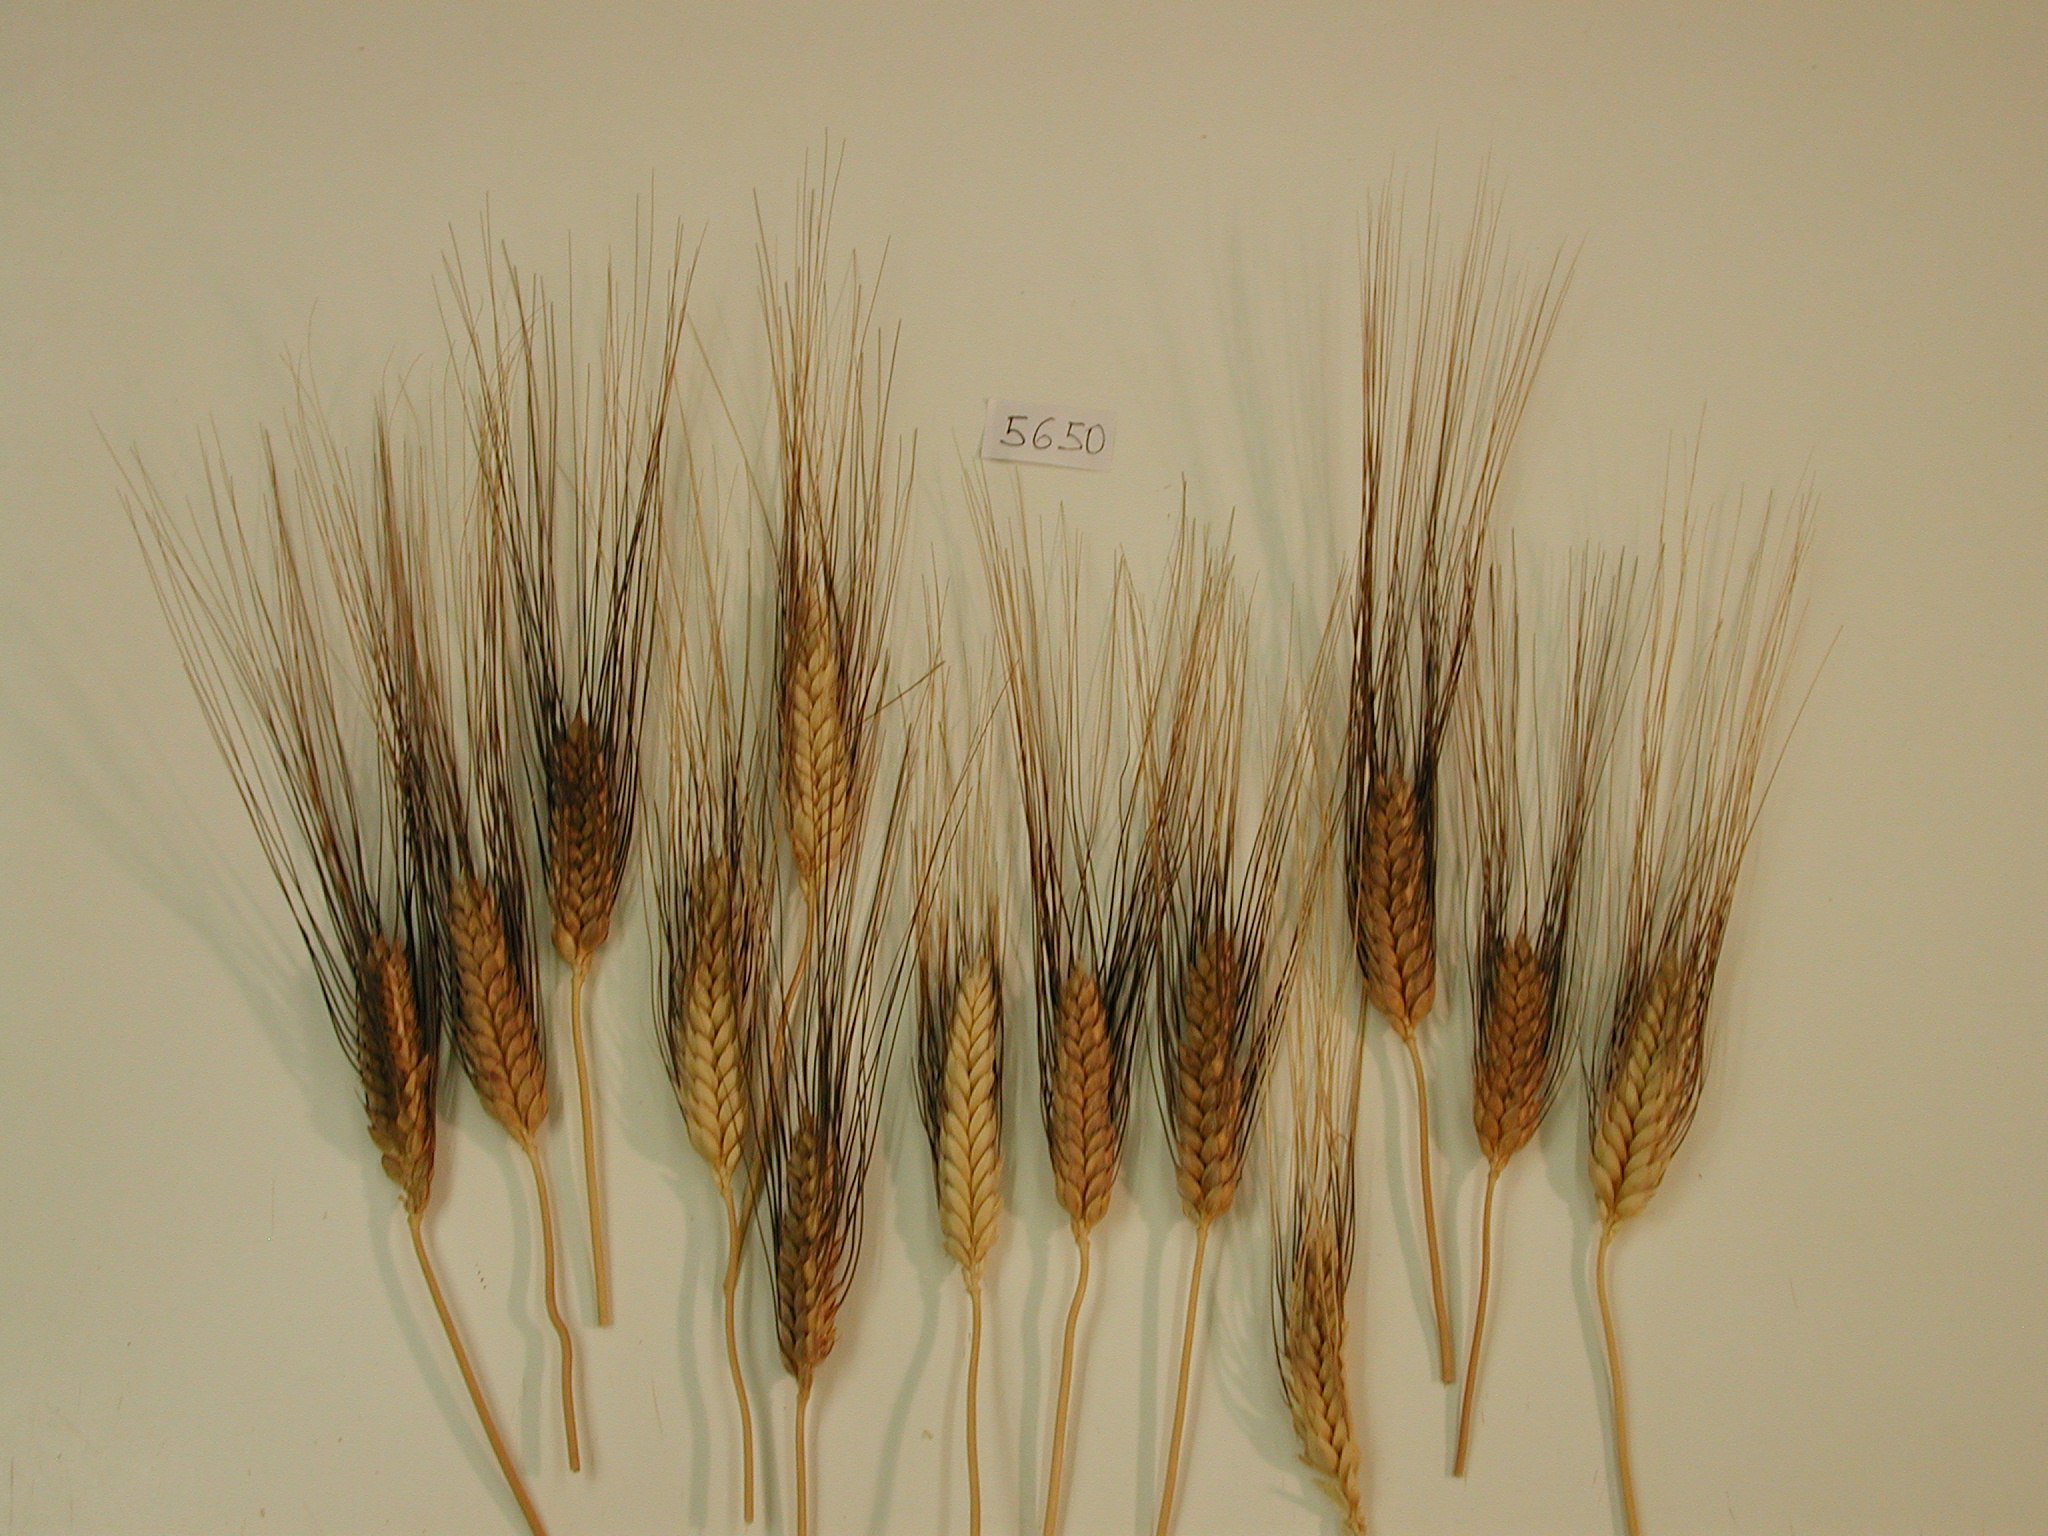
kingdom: Plantae
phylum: Tracheophyta
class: Liliopsida
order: Poales
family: Poaceae
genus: Triticum
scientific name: Triticum aestivum
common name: Wheat
